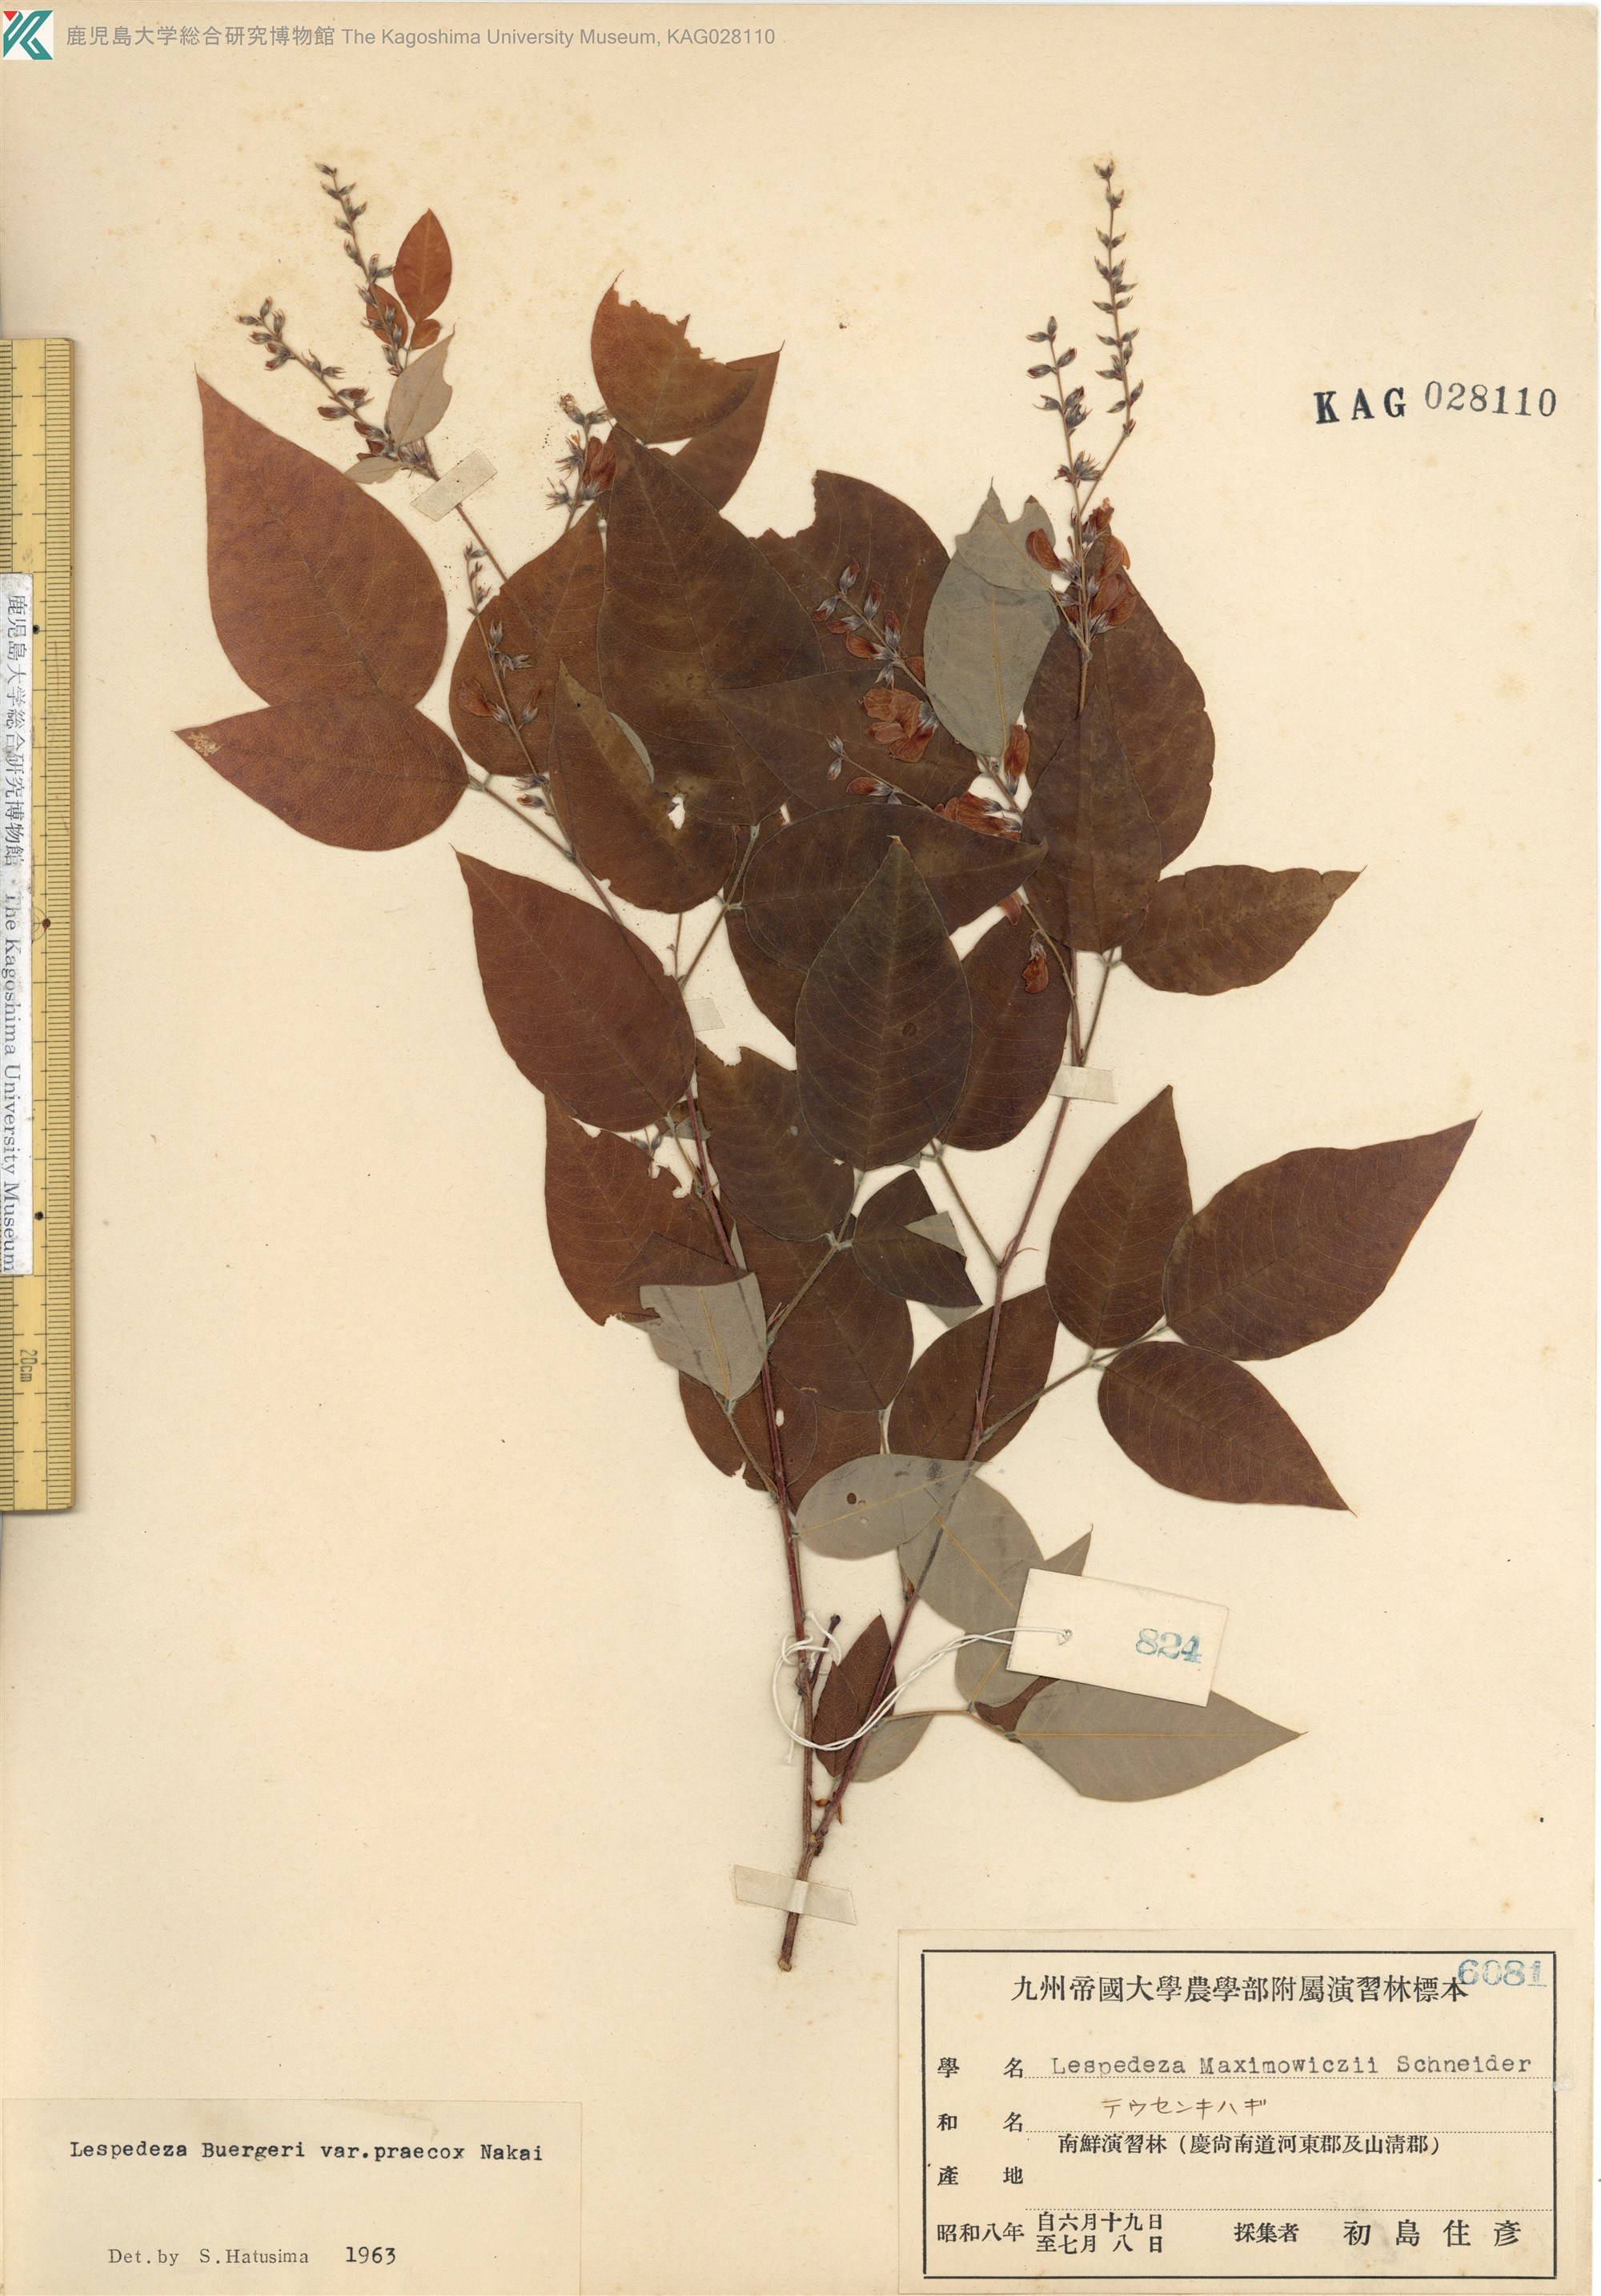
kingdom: Plantae
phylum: Tracheophyta
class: Magnoliopsida
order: Fabales
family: Fabaceae
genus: Lespedeza
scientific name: Lespedeza maximowiczii
